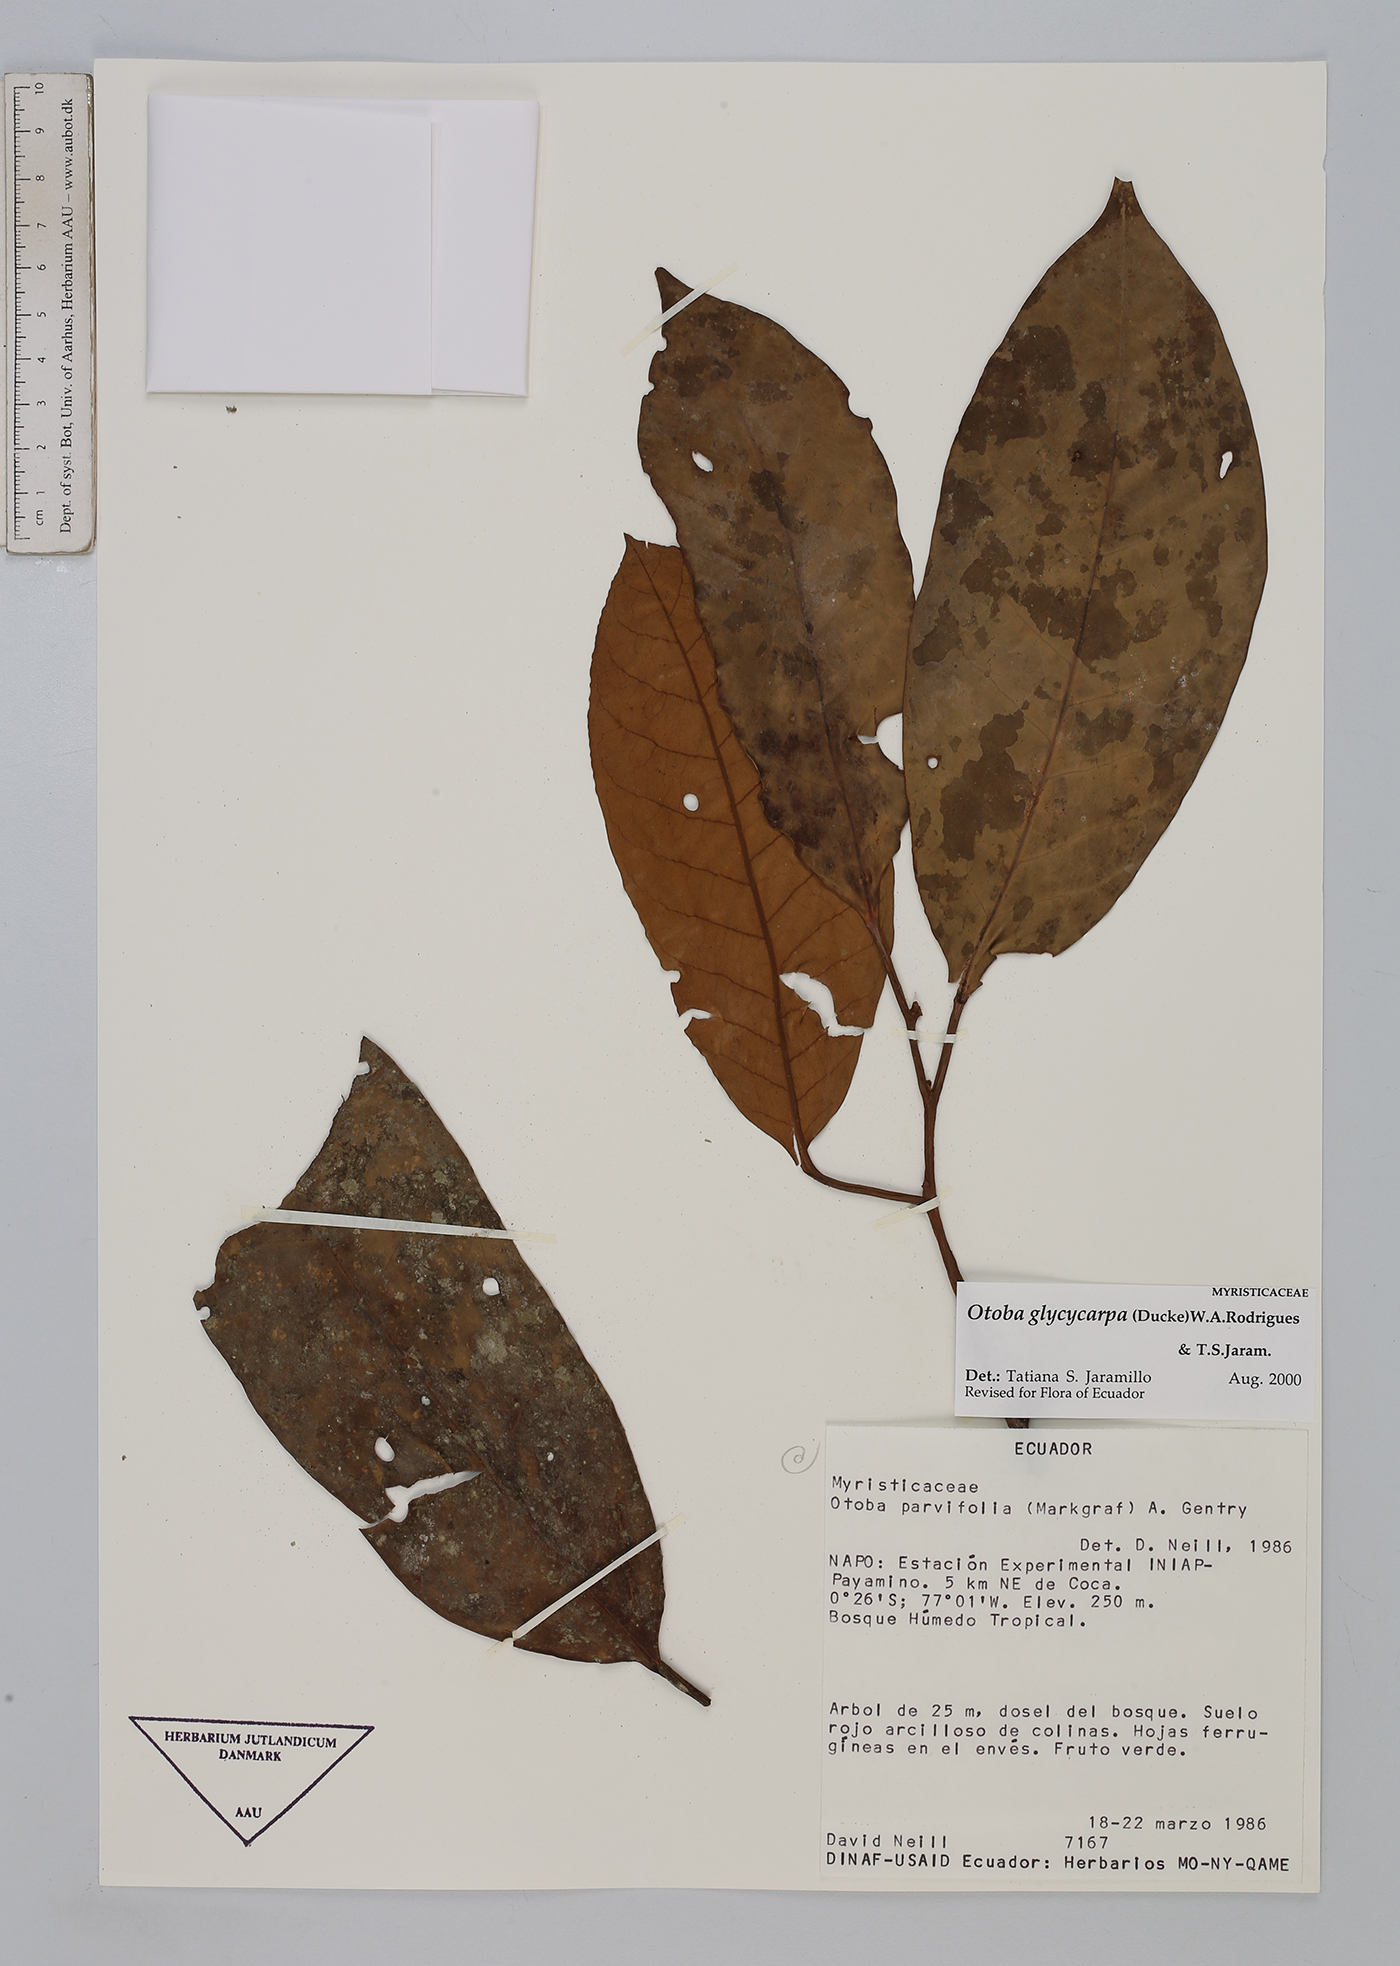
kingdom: Plantae
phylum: Tracheophyta
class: Magnoliopsida
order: Magnoliales
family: Myristicaceae
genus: Otoba
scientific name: Otoba glycycarpa
